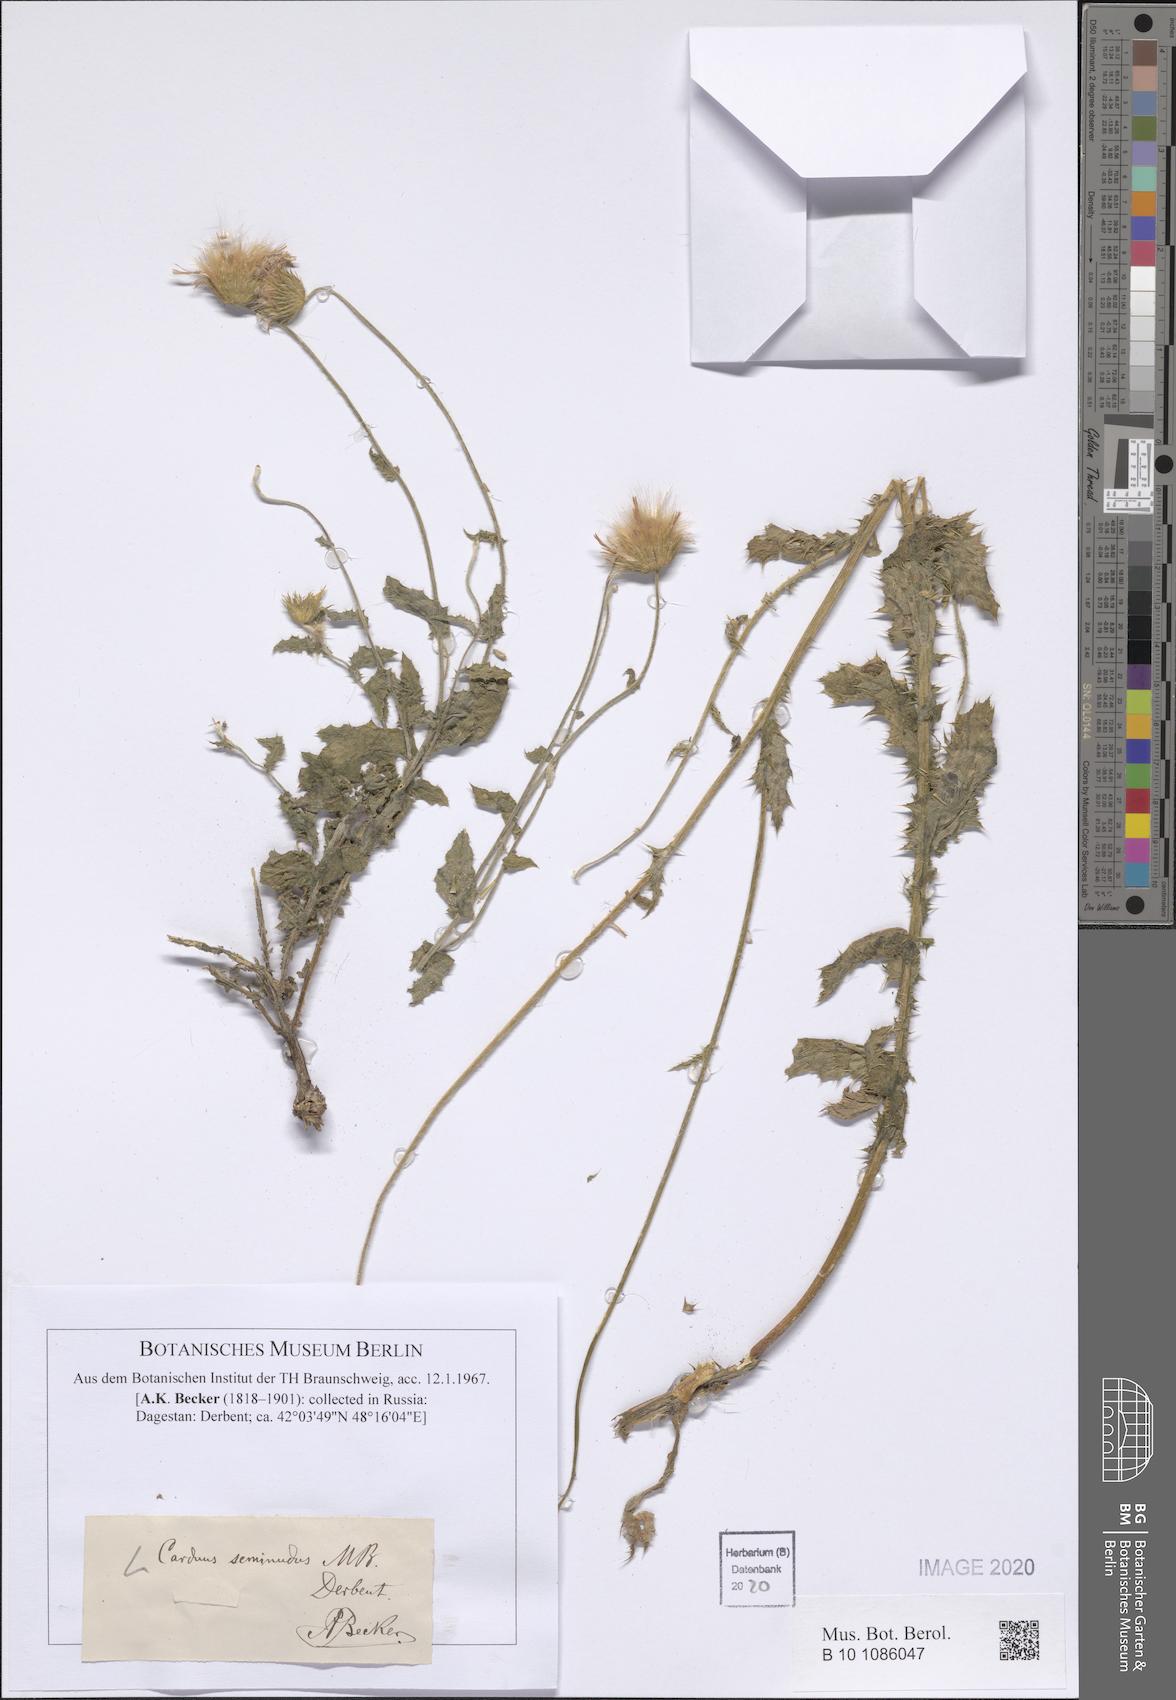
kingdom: Plantae
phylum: Tracheophyta
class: Magnoliopsida
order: Asterales
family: Asteraceae
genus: Carduus
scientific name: Carduus seminudus
